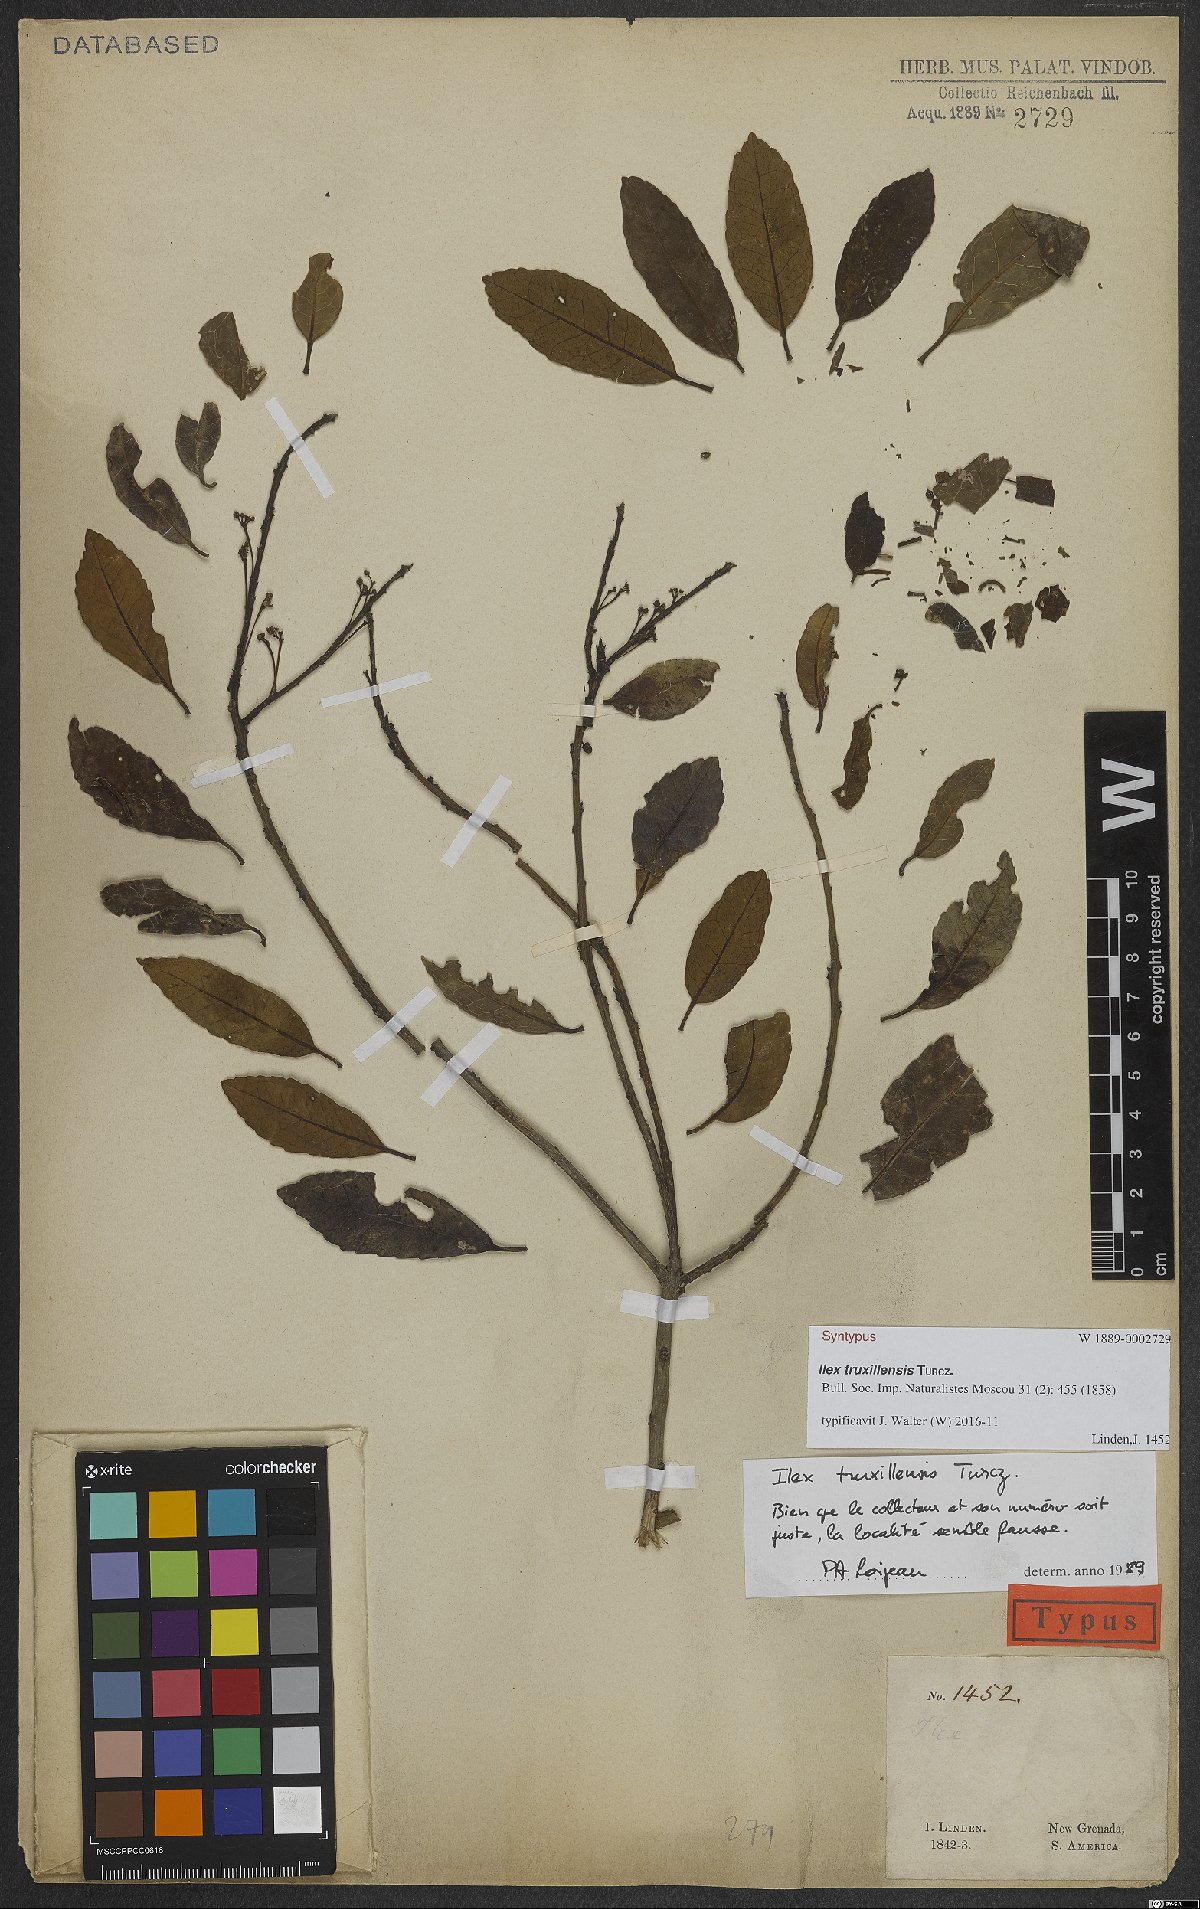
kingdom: Plantae
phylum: Tracheophyta
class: Magnoliopsida
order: Aquifoliales
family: Aquifoliaceae
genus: Ilex
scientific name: Ilex truxillensis
